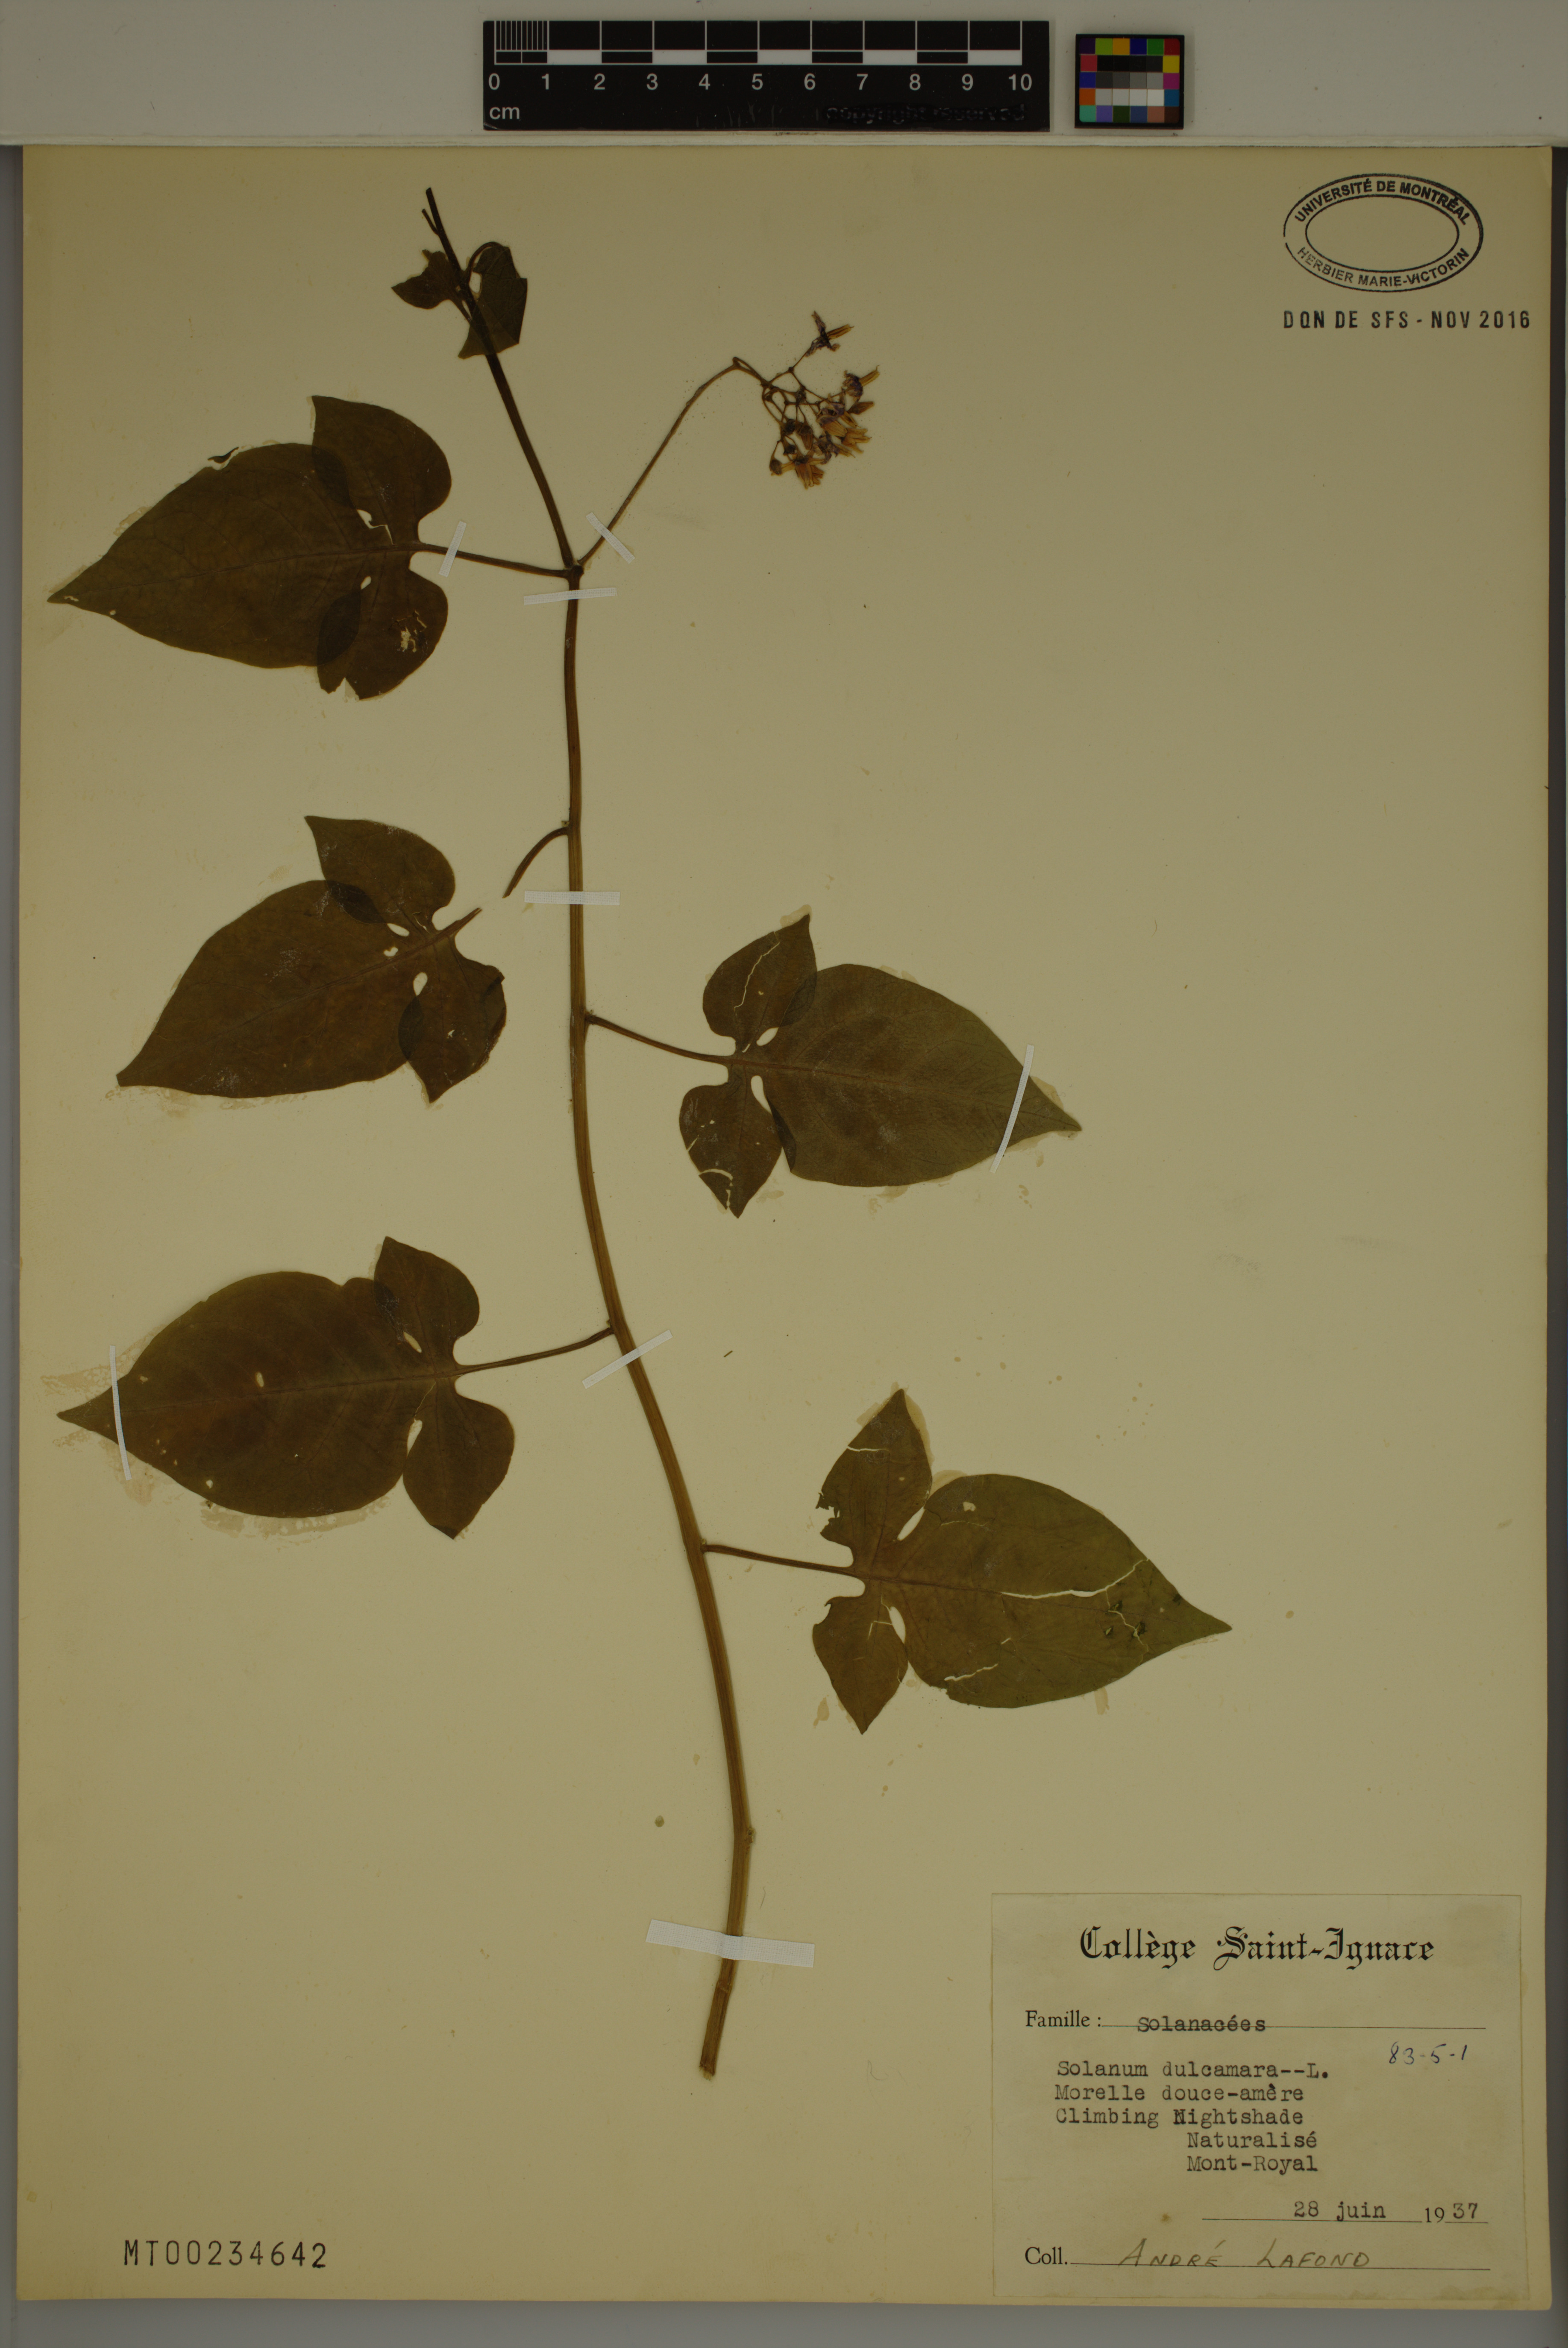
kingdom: Plantae
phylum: Tracheophyta
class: Magnoliopsida
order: Solanales
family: Solanaceae
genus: Solanum
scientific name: Solanum dulcamara
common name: Climbing nightshade
